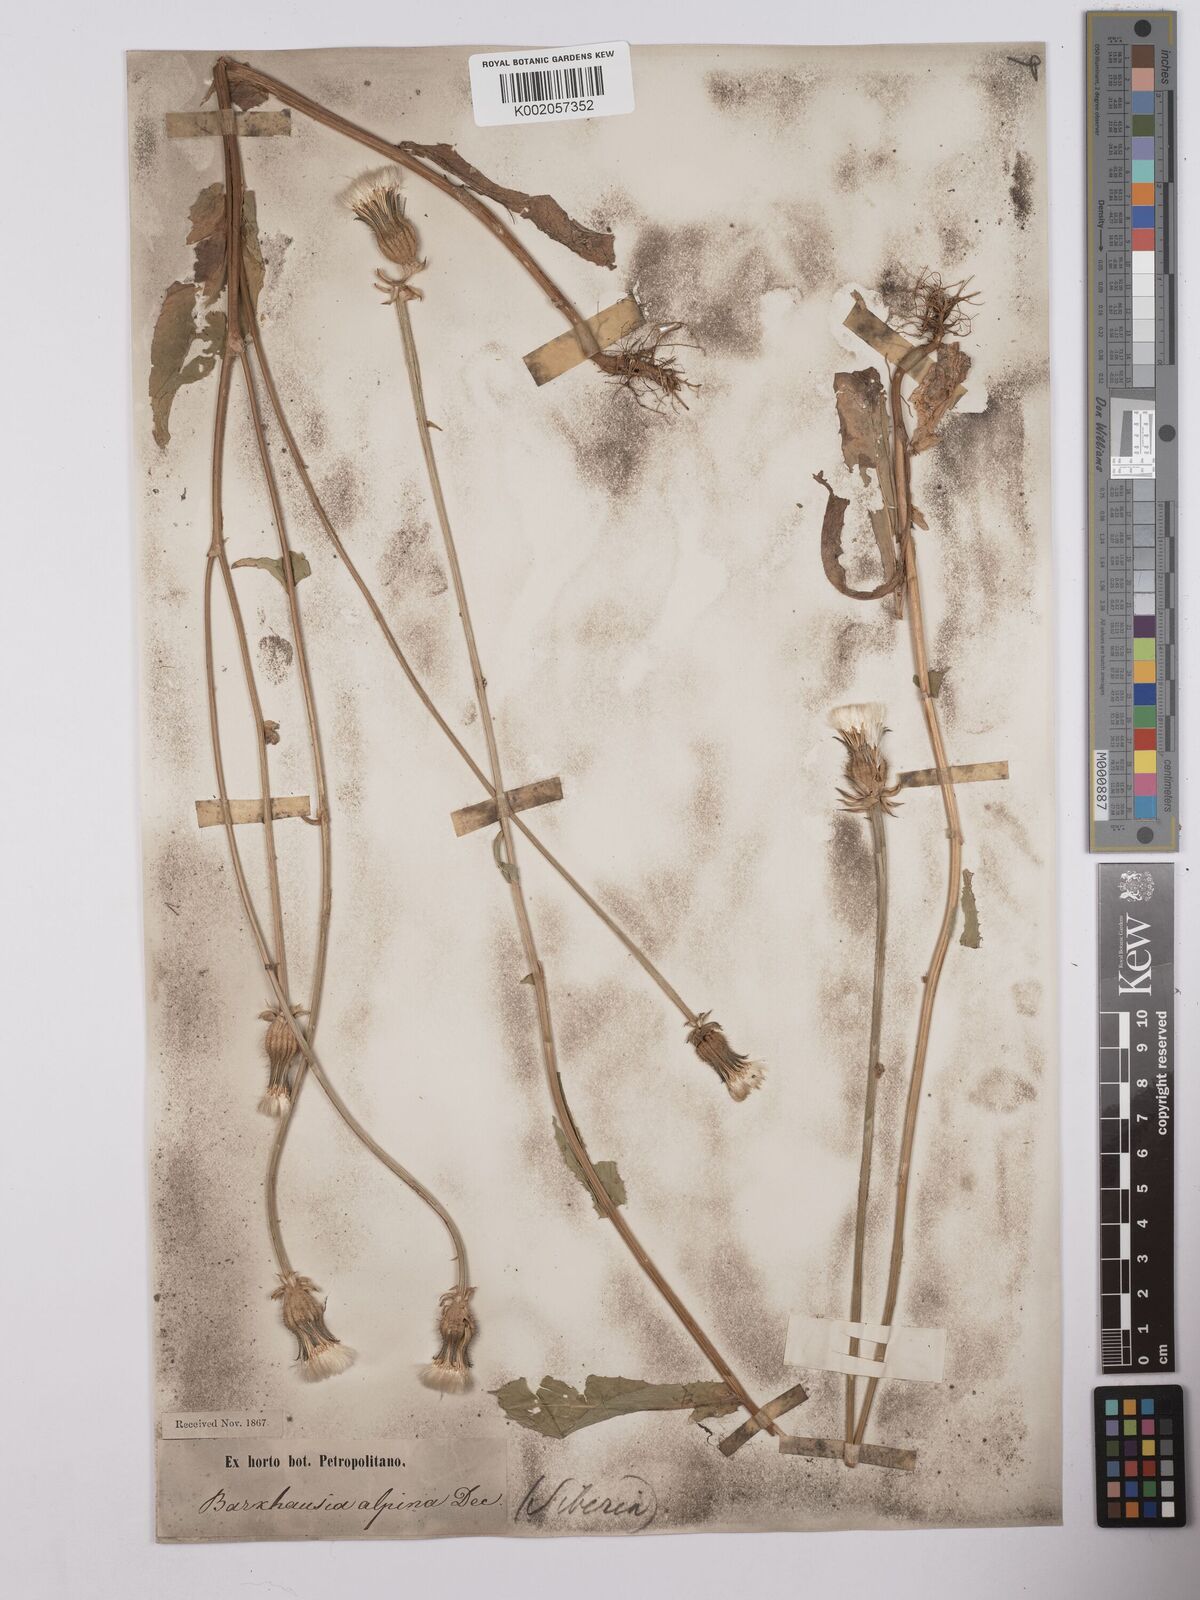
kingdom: Plantae
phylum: Tracheophyta
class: Magnoliopsida
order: Asterales
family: Asteraceae
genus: Crepis
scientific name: Crepis alpina
